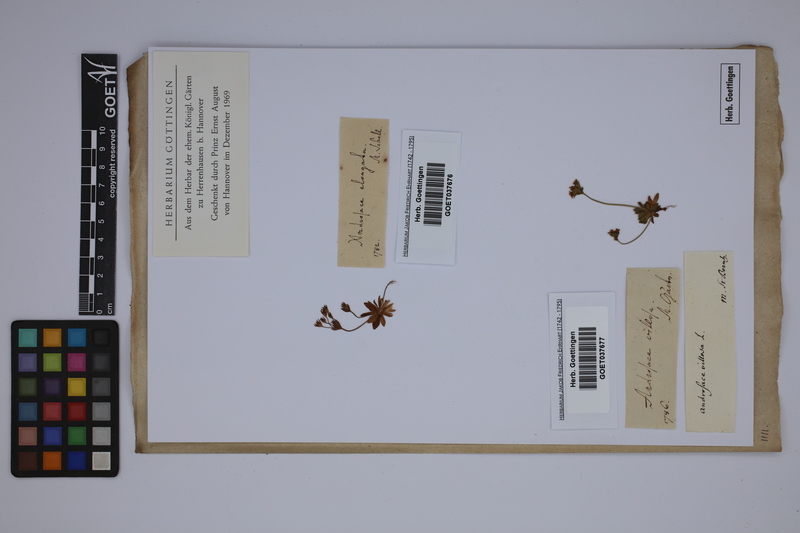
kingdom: Plantae
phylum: Tracheophyta
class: Magnoliopsida
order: Ericales
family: Primulaceae
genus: Androsace
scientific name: Androsace elongata
